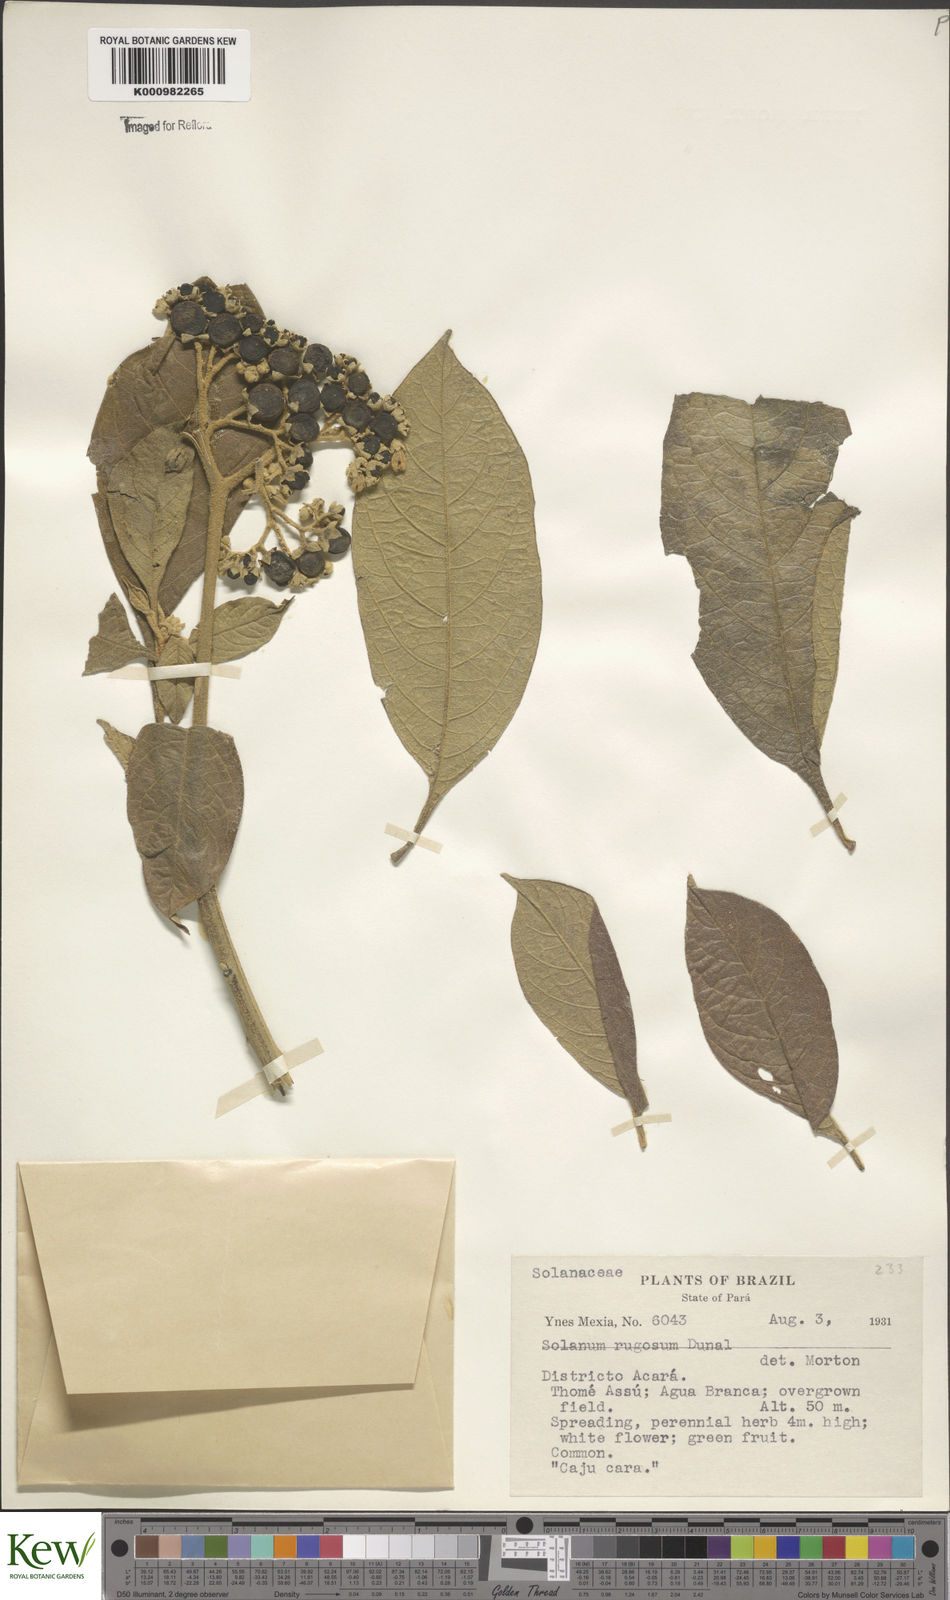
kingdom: Plantae
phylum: Tracheophyta
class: Magnoliopsida
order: Solanales
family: Solanaceae
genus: Solanum
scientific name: Solanum rugosum
